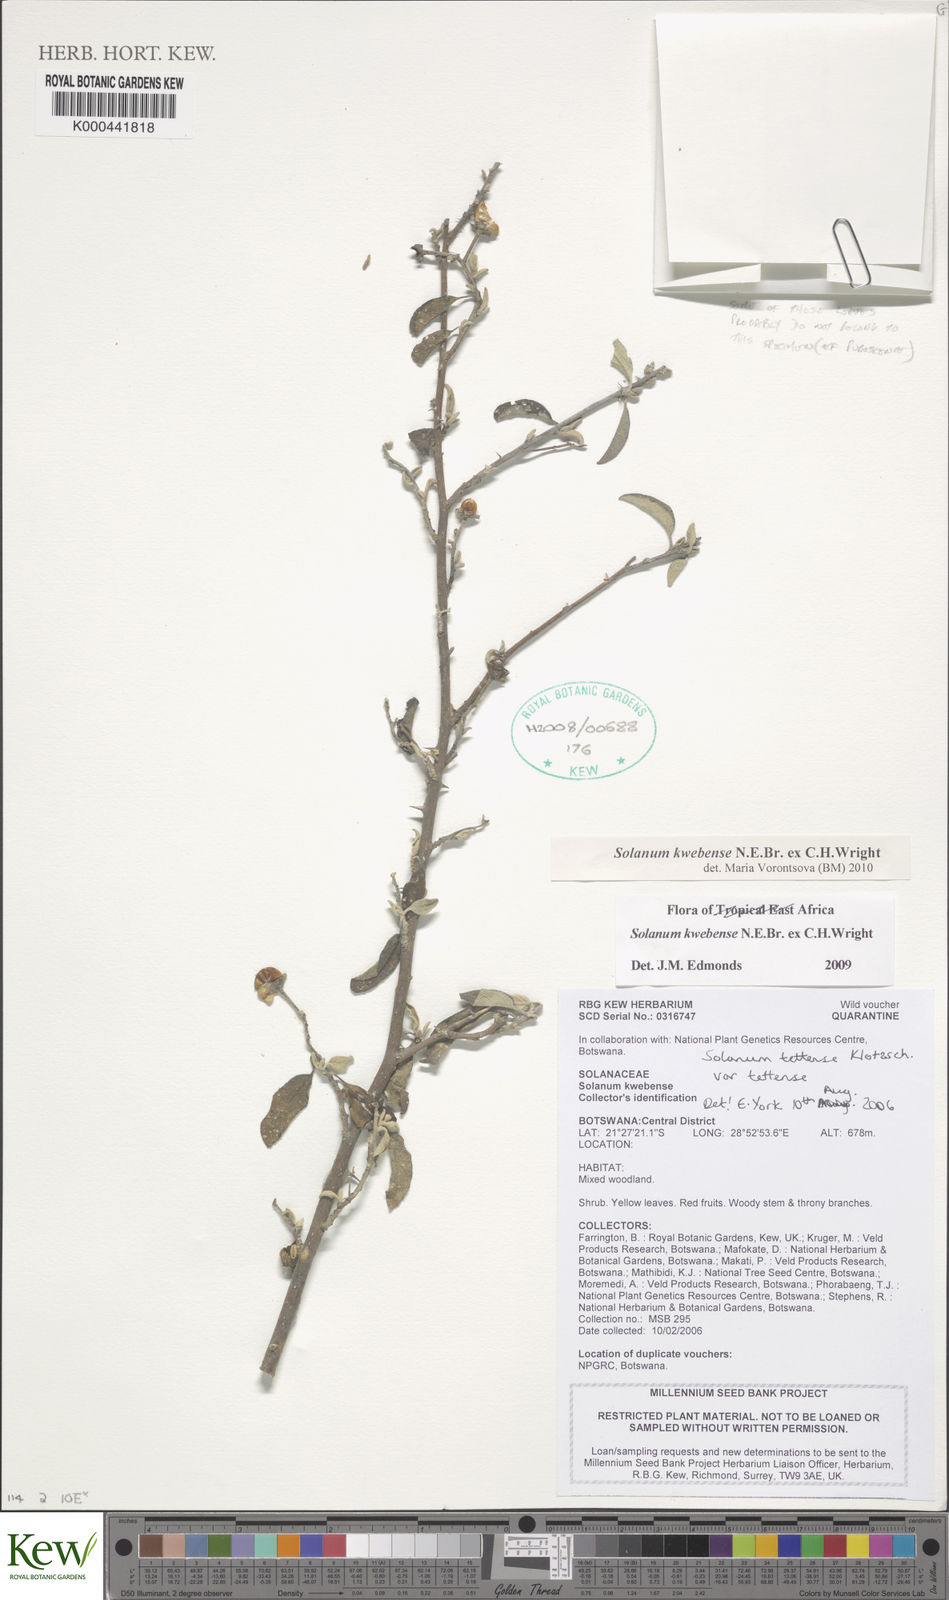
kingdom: Plantae
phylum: Tracheophyta
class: Magnoliopsida
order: Solanales
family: Solanaceae
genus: Solanum
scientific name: Solanum tettense
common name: Mozambique bitter apple
